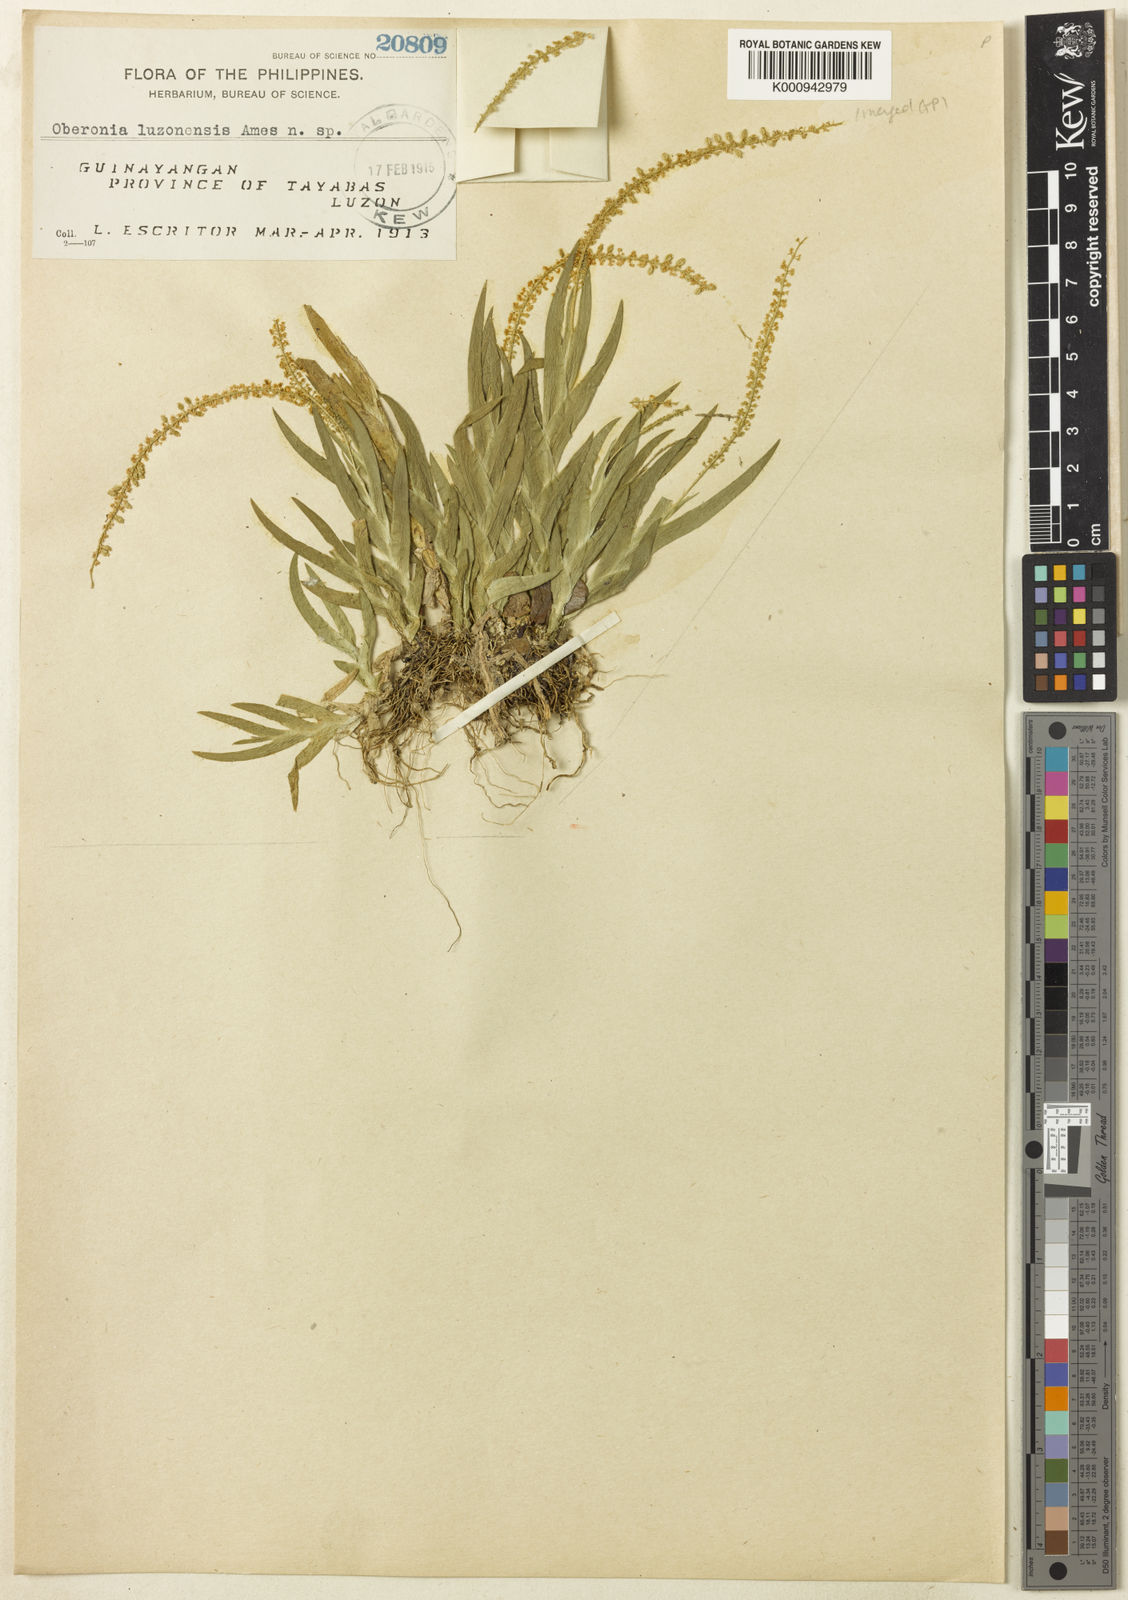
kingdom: Plantae
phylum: Tracheophyta
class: Liliopsida
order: Asparagales
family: Orchidaceae
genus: Oberonia
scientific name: Oberonia luzonensis
